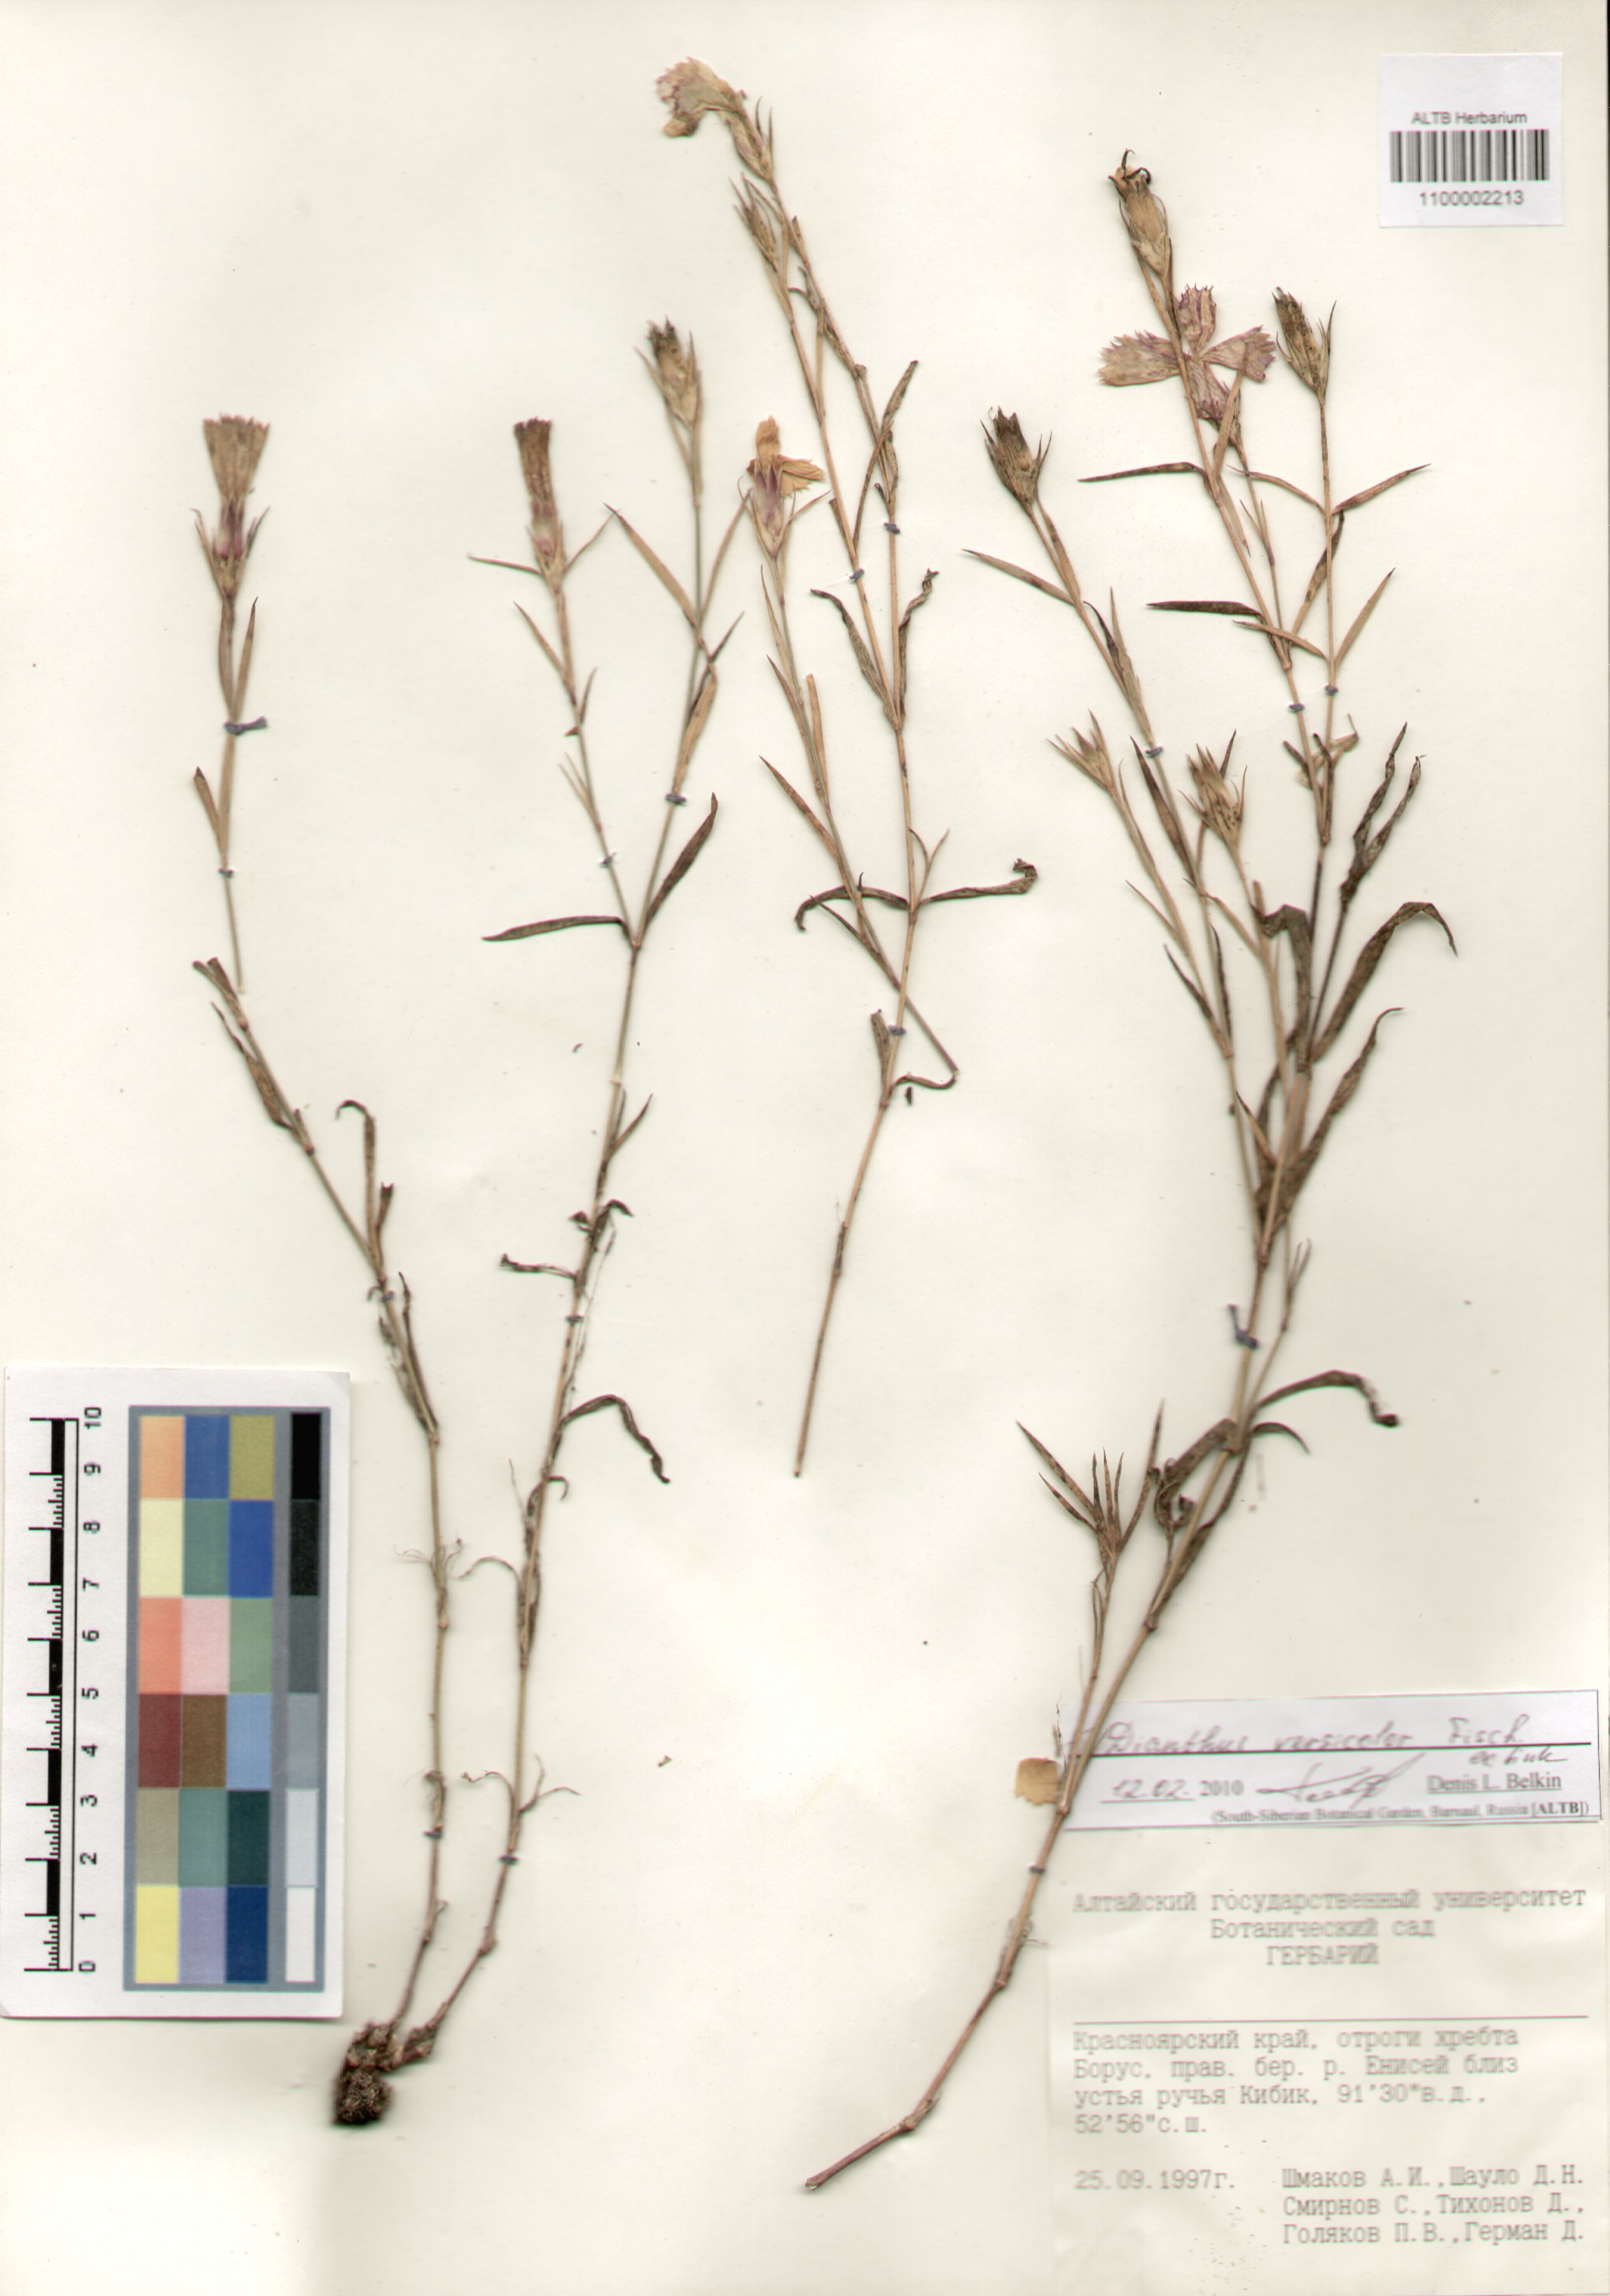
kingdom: Plantae
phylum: Tracheophyta
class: Magnoliopsida
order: Caryophyllales
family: Caryophyllaceae
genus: Dianthus
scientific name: Dianthus chinensis
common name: Rainbow pink
